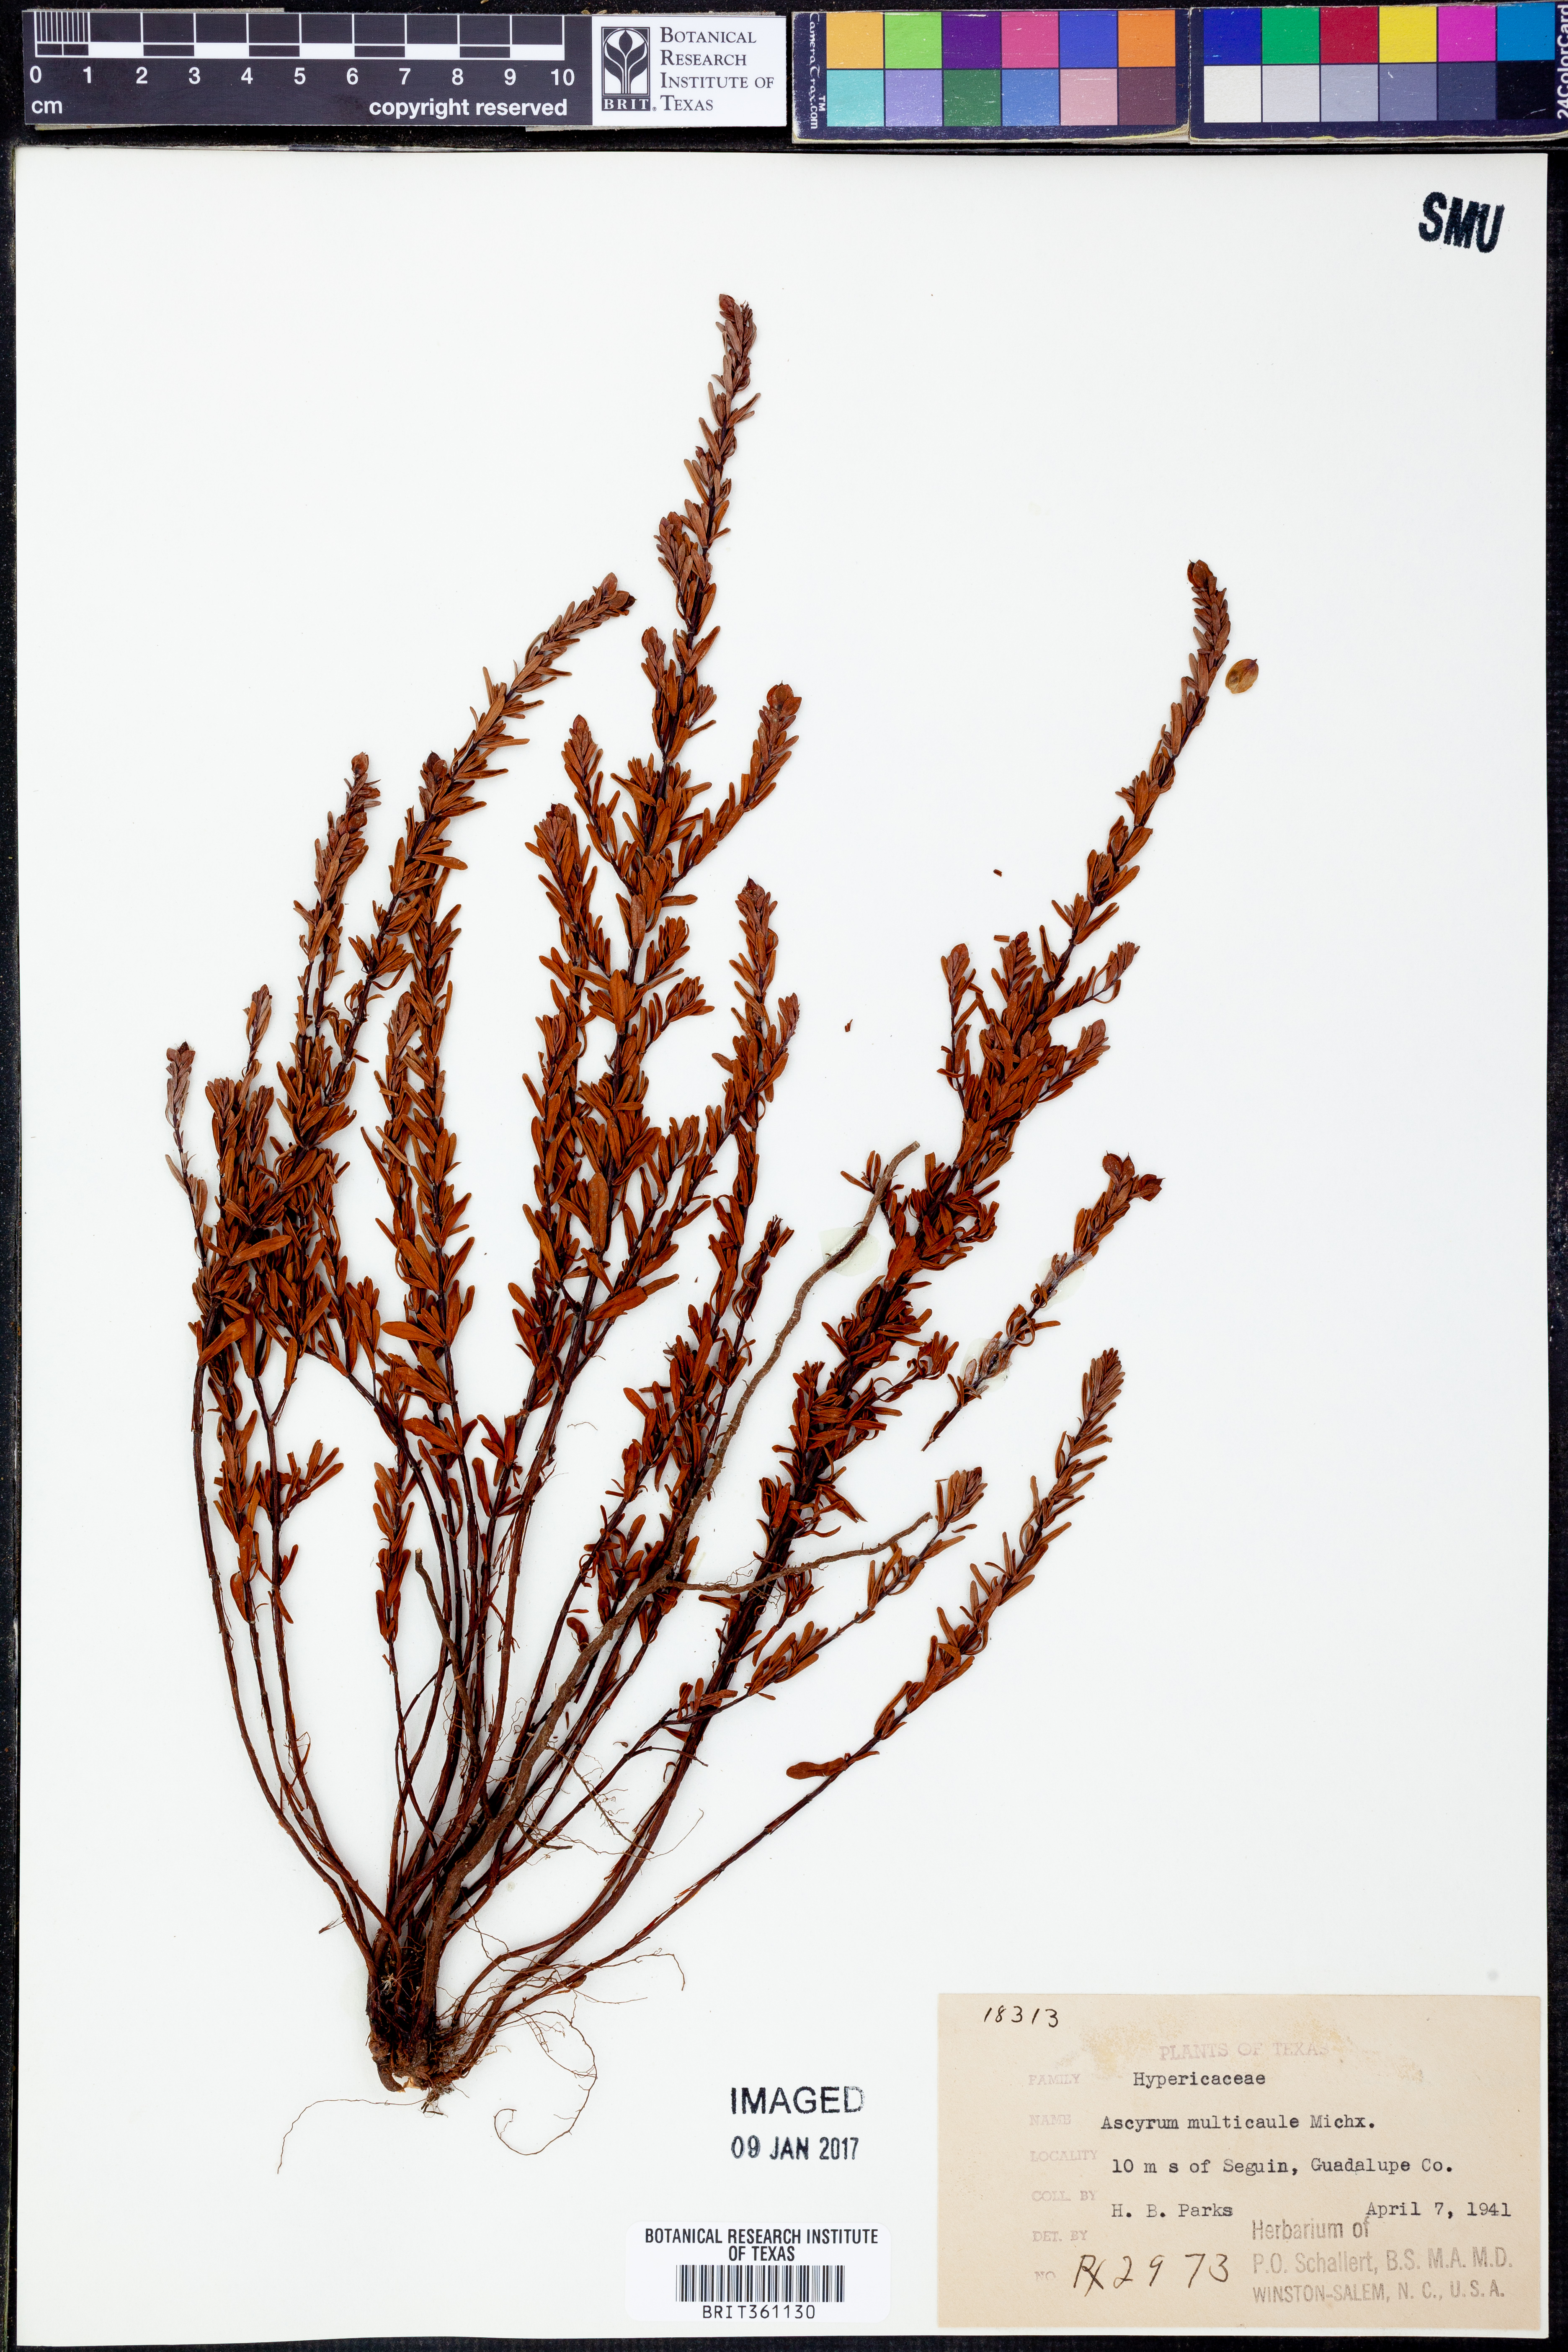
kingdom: Plantae
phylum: Tracheophyta
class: Magnoliopsida
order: Malpighiales
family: Hypericaceae
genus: Hypericum
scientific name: Hypericum hypericoides
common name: St. andrew's cross
